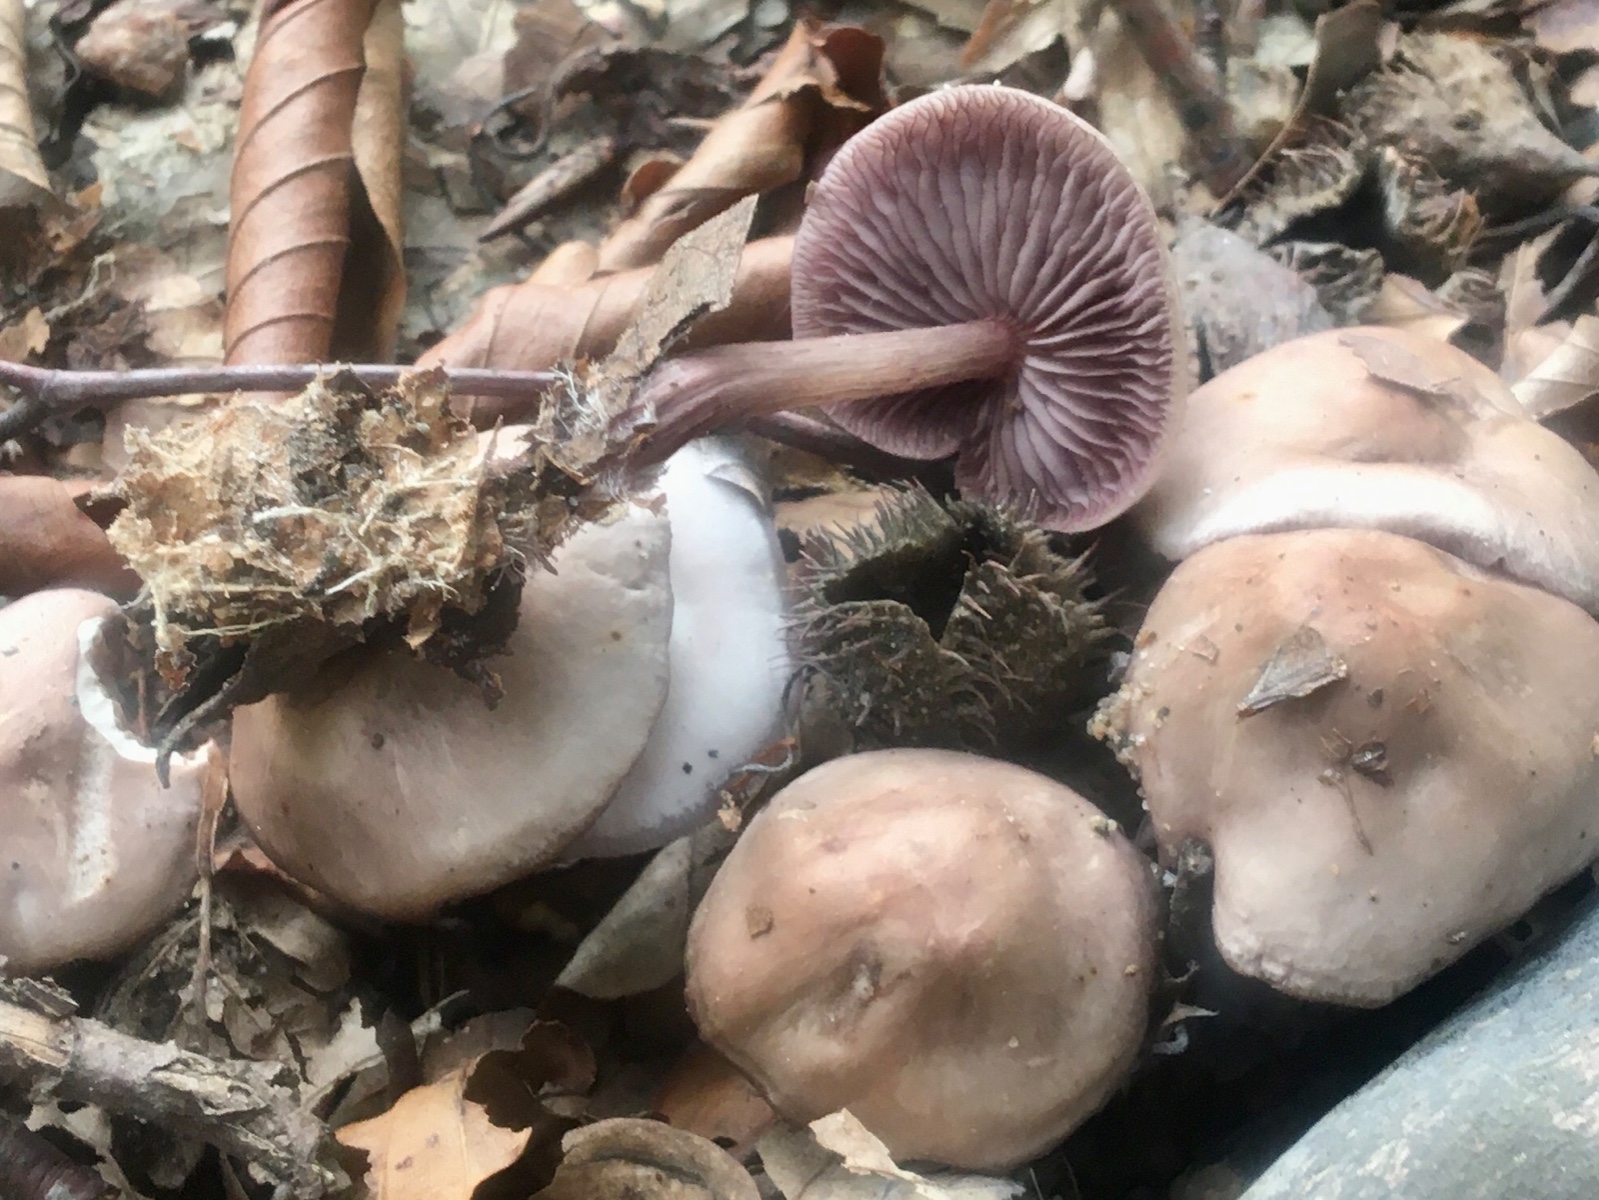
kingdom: Fungi
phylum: Basidiomycota
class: Agaricomycetes
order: Agaricales
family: Mycenaceae
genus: Mycena
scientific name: Mycena pelianthina
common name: mørkbladet huesvamp
